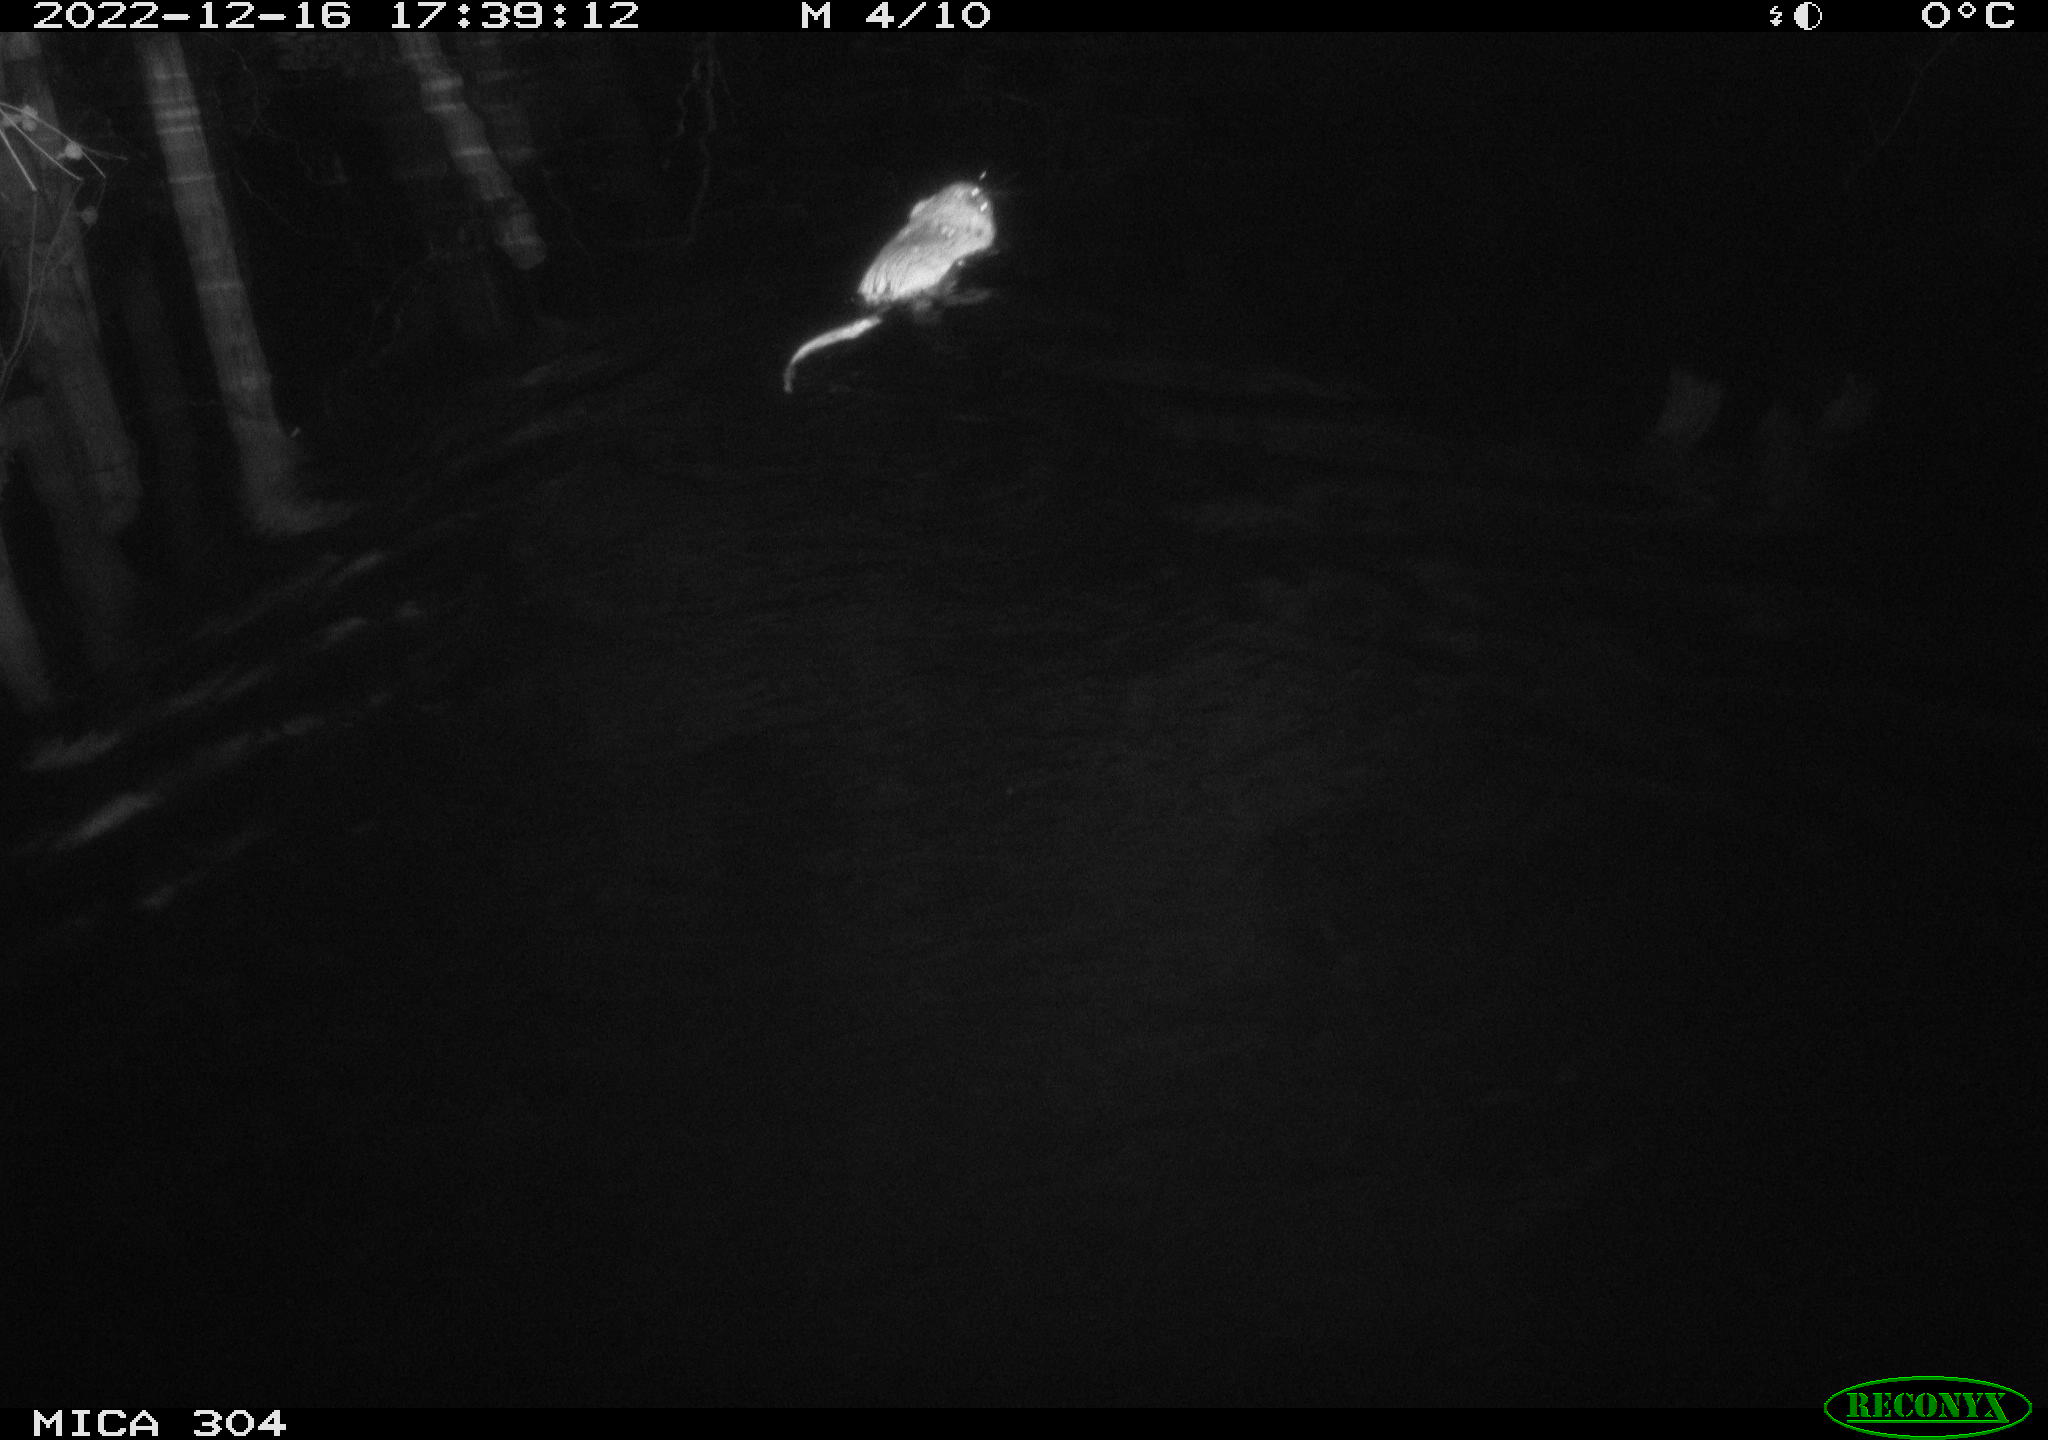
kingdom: Animalia
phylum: Chordata
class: Mammalia
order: Rodentia
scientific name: Rodentia
